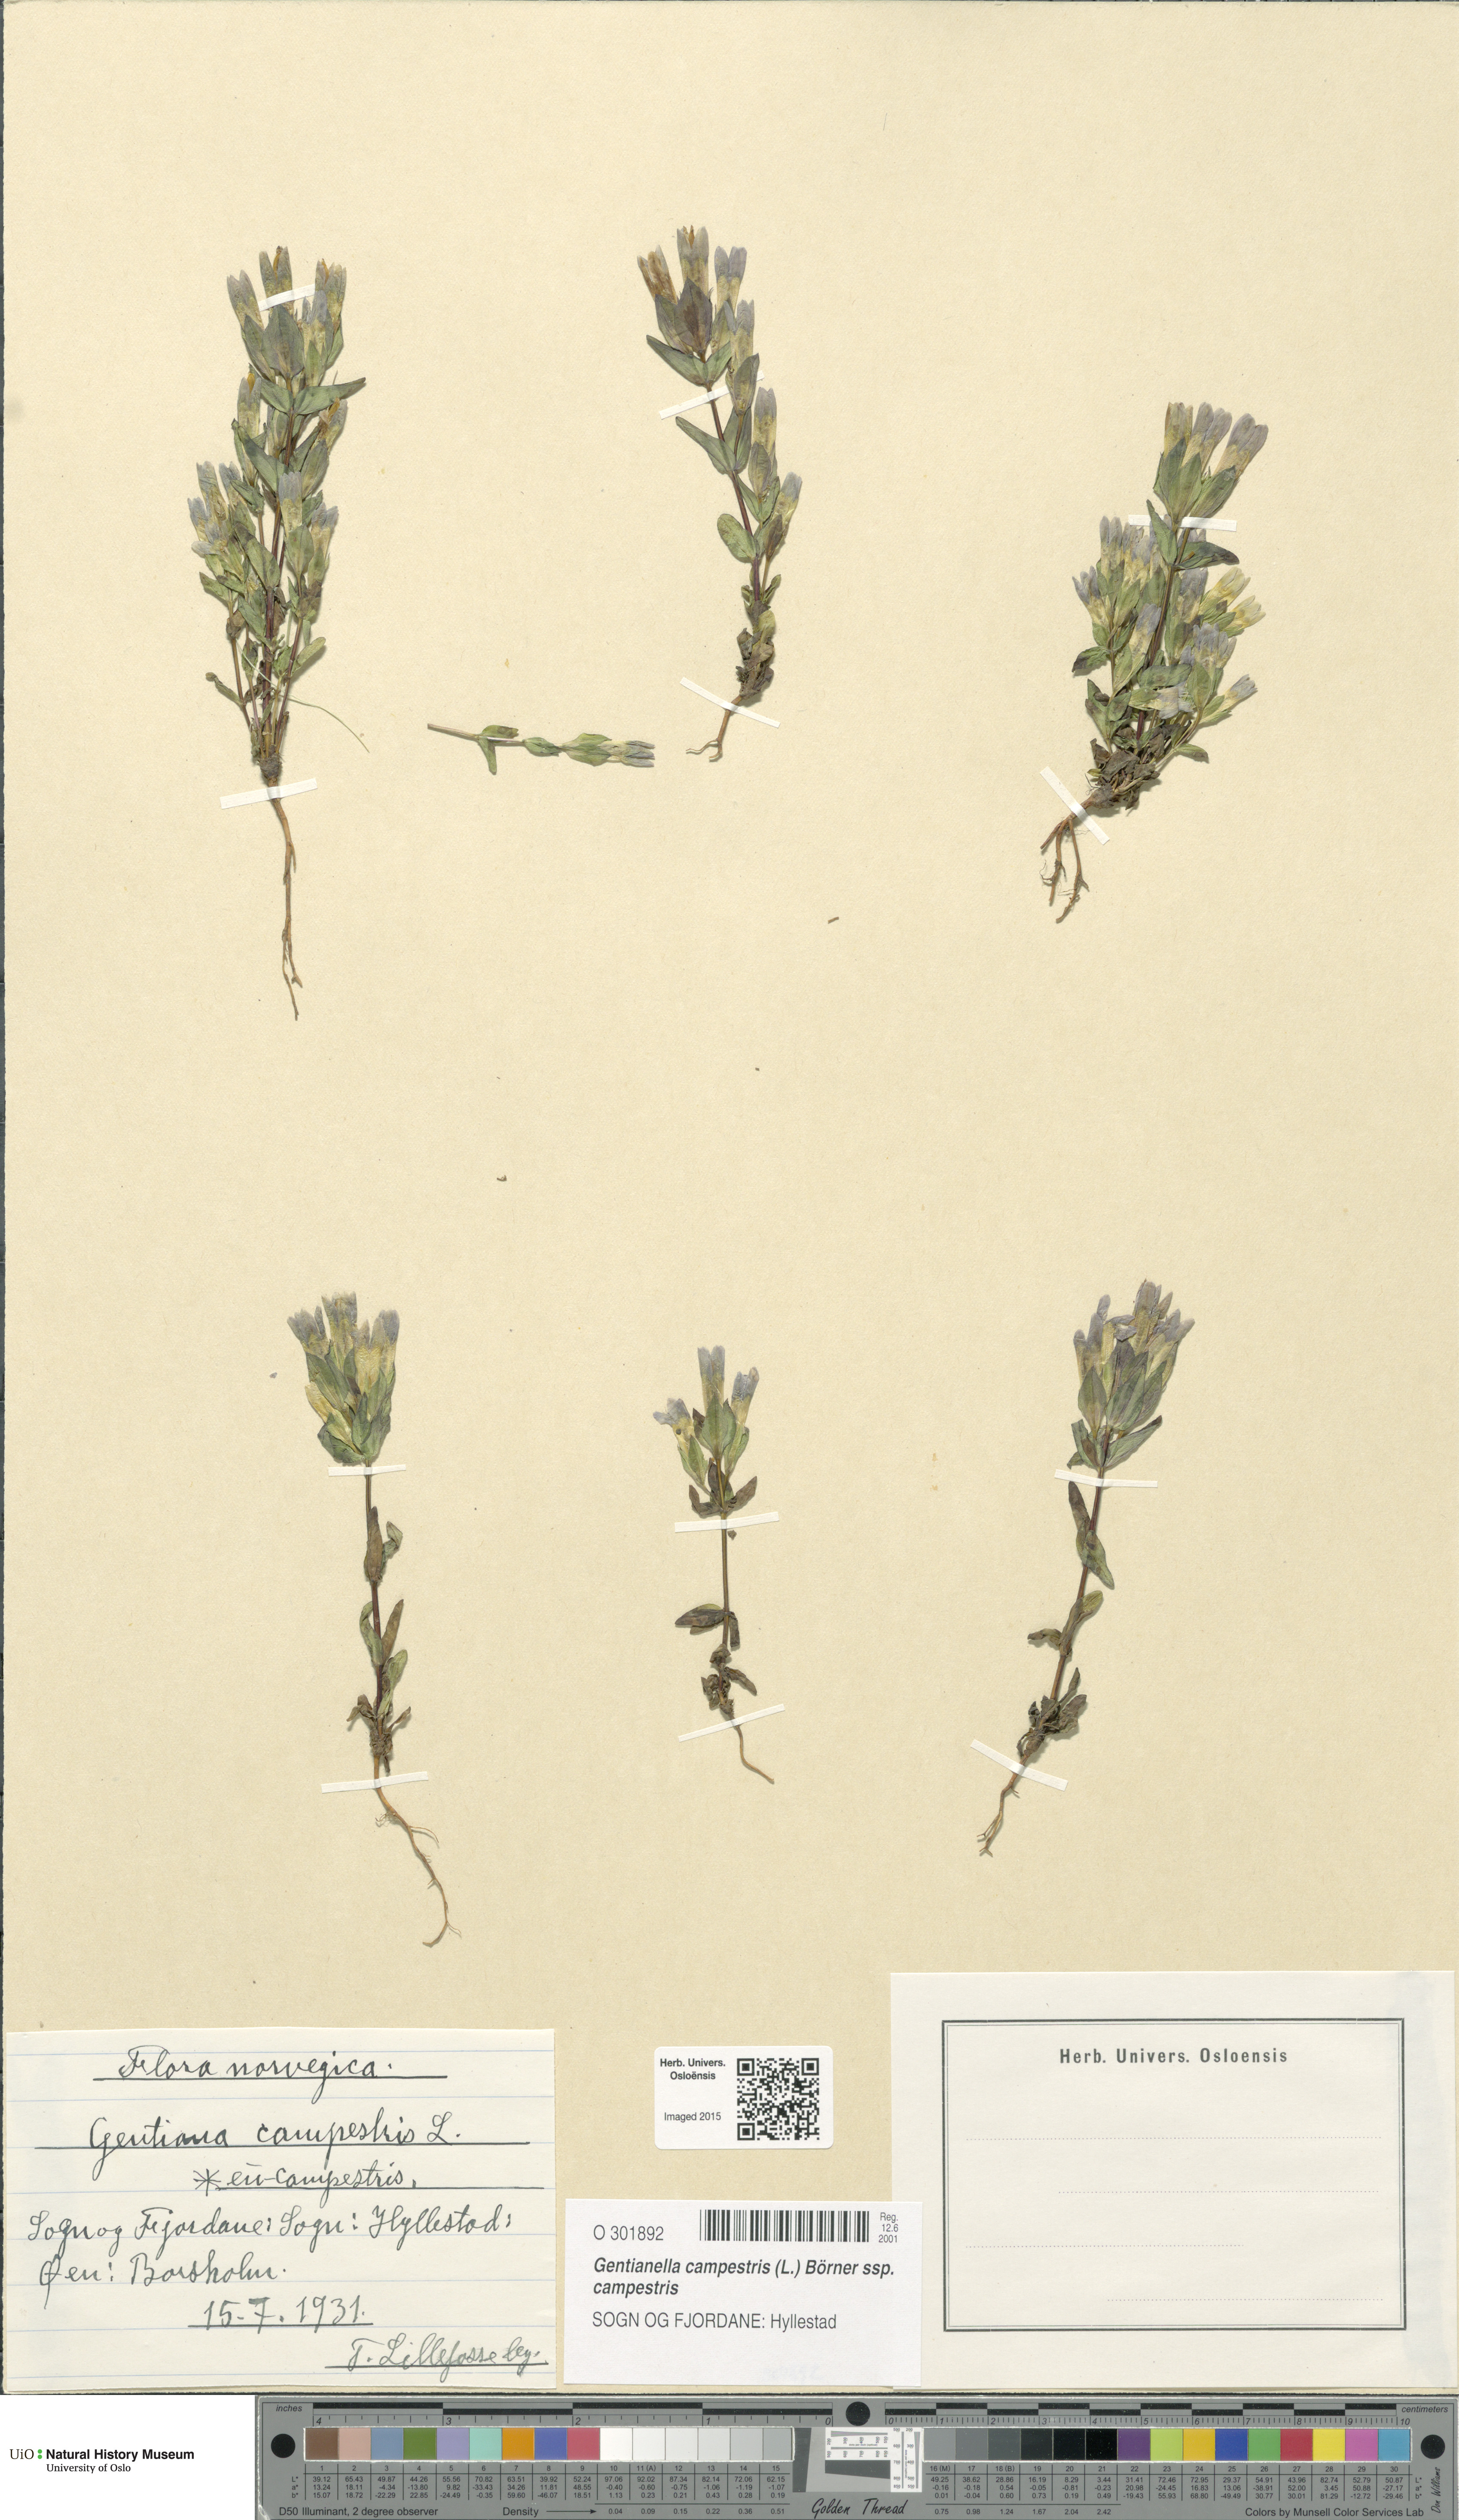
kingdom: Plantae
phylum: Tracheophyta
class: Magnoliopsida
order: Gentianales
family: Gentianaceae
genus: Gentianella
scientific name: Gentianella campestris
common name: Field gentian
